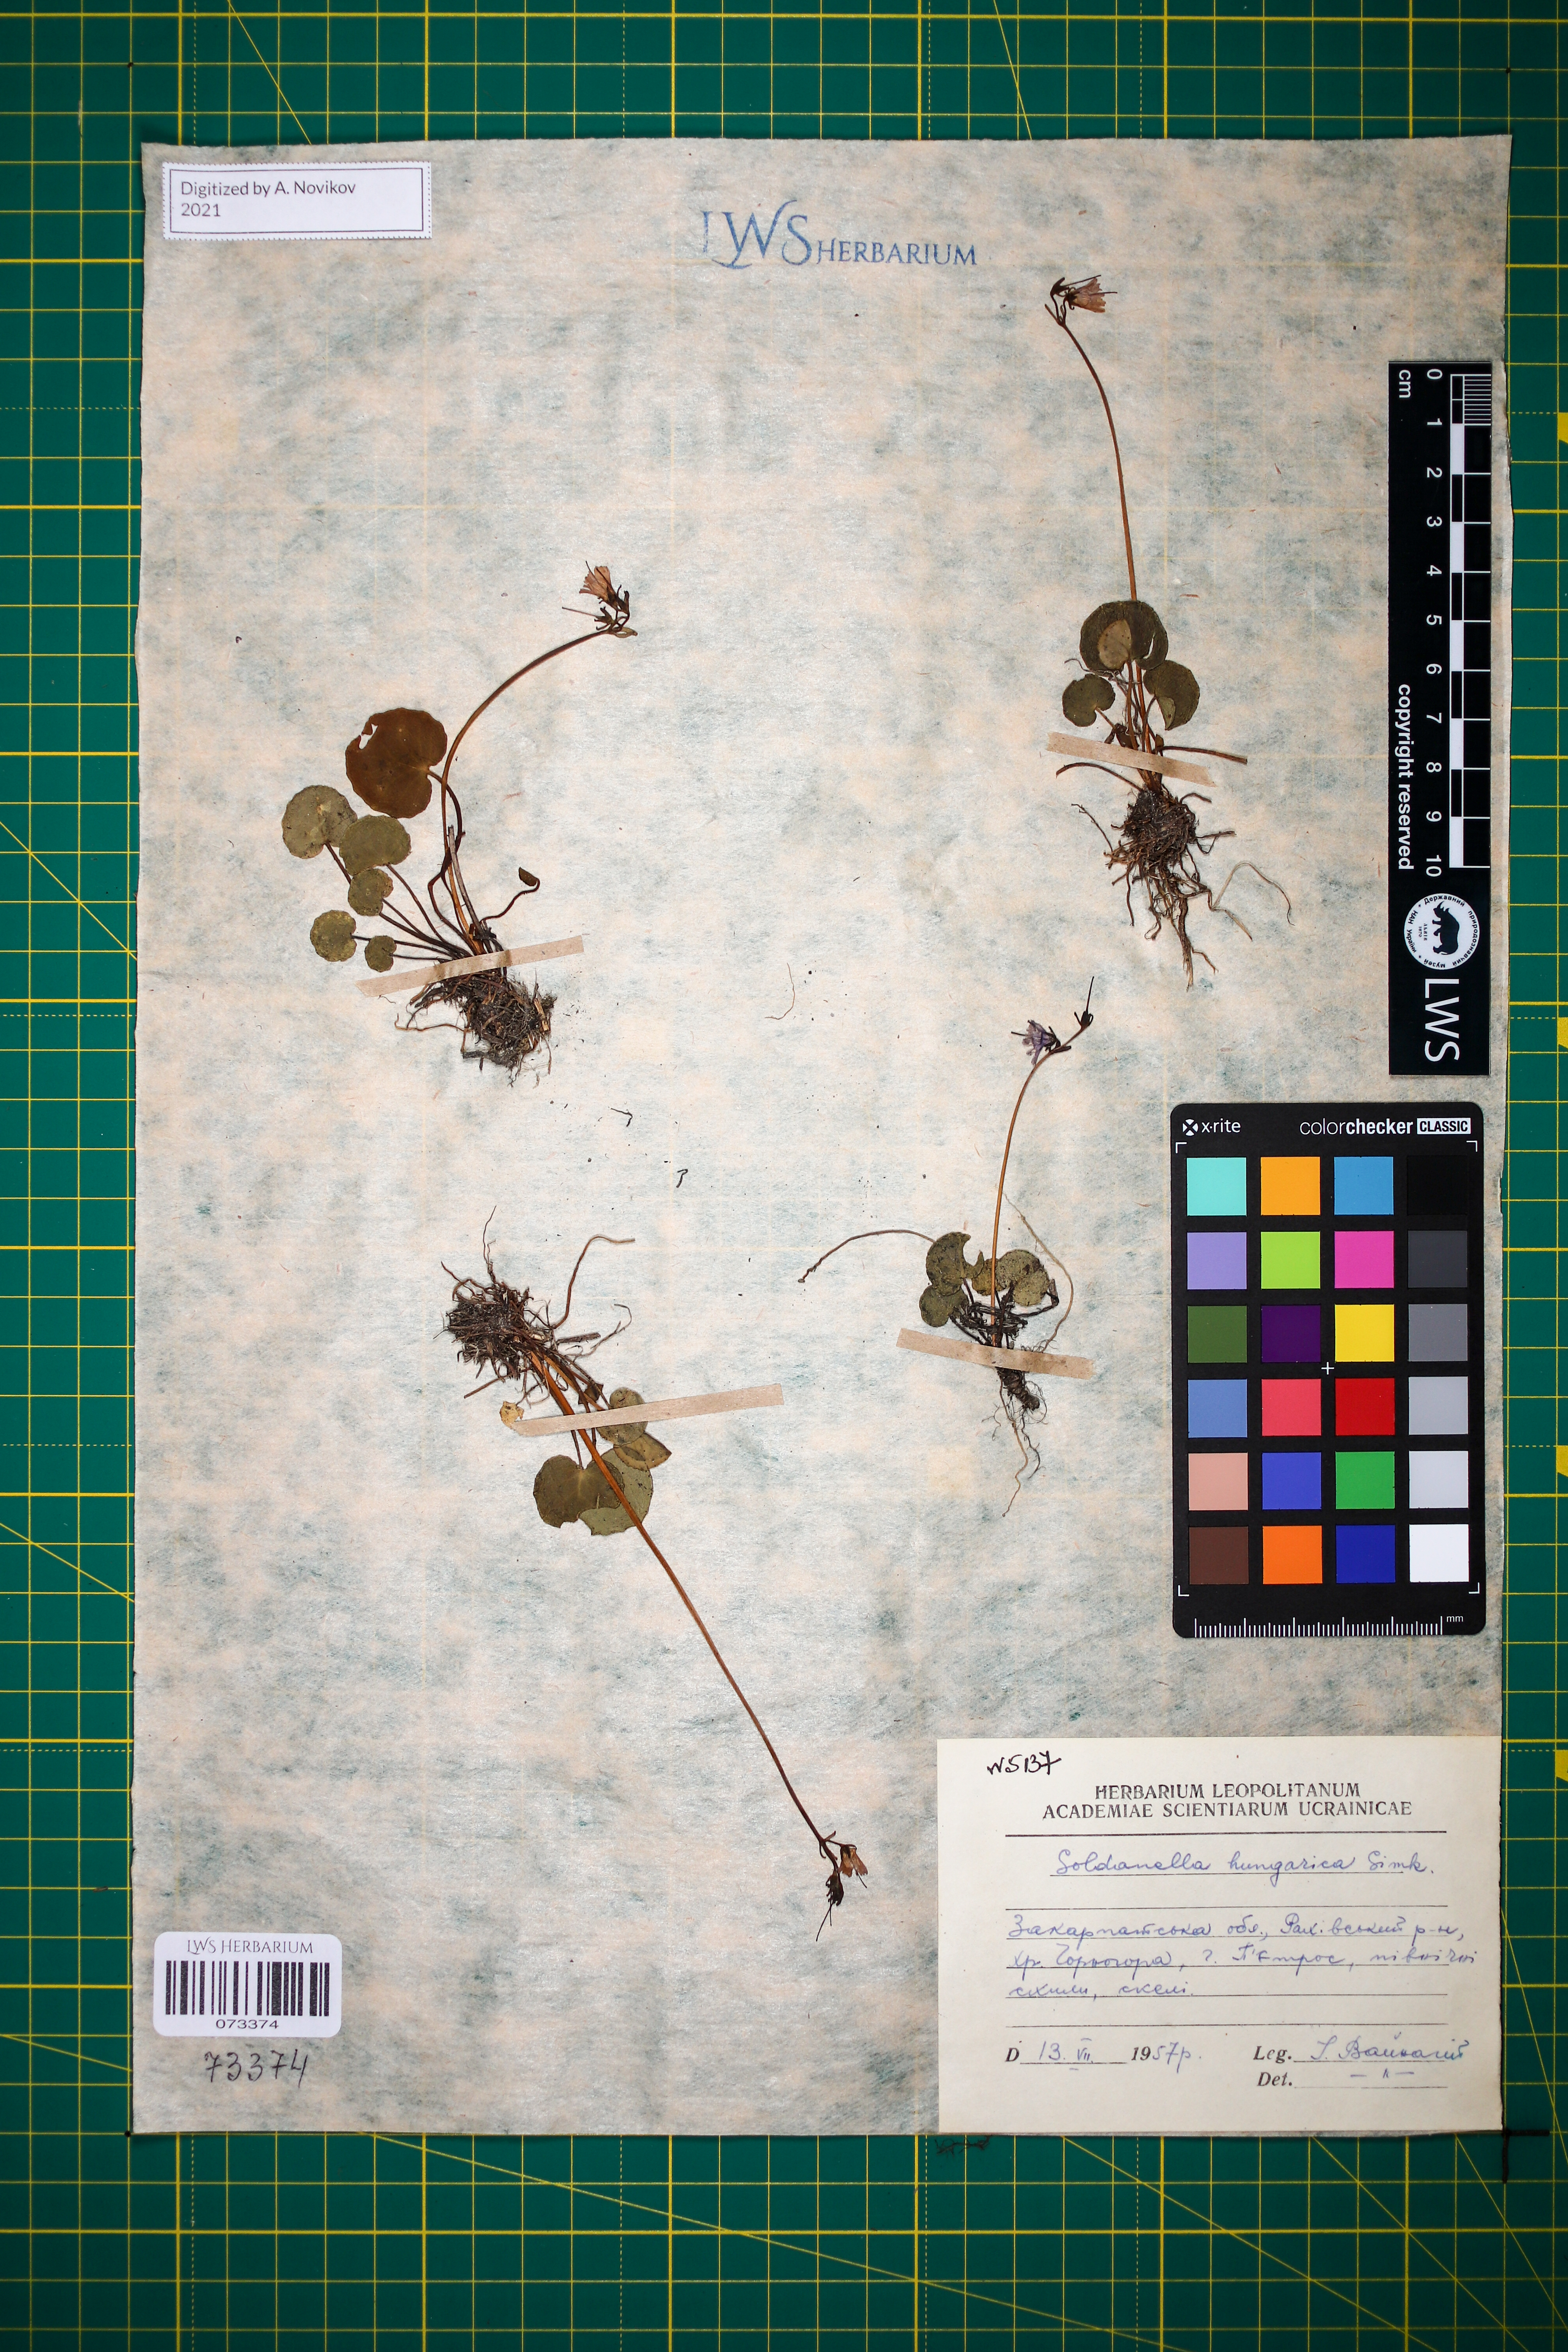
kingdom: Plantae
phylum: Tracheophyta
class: Magnoliopsida
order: Ericales
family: Primulaceae
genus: Soldanella
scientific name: Soldanella hungarica
